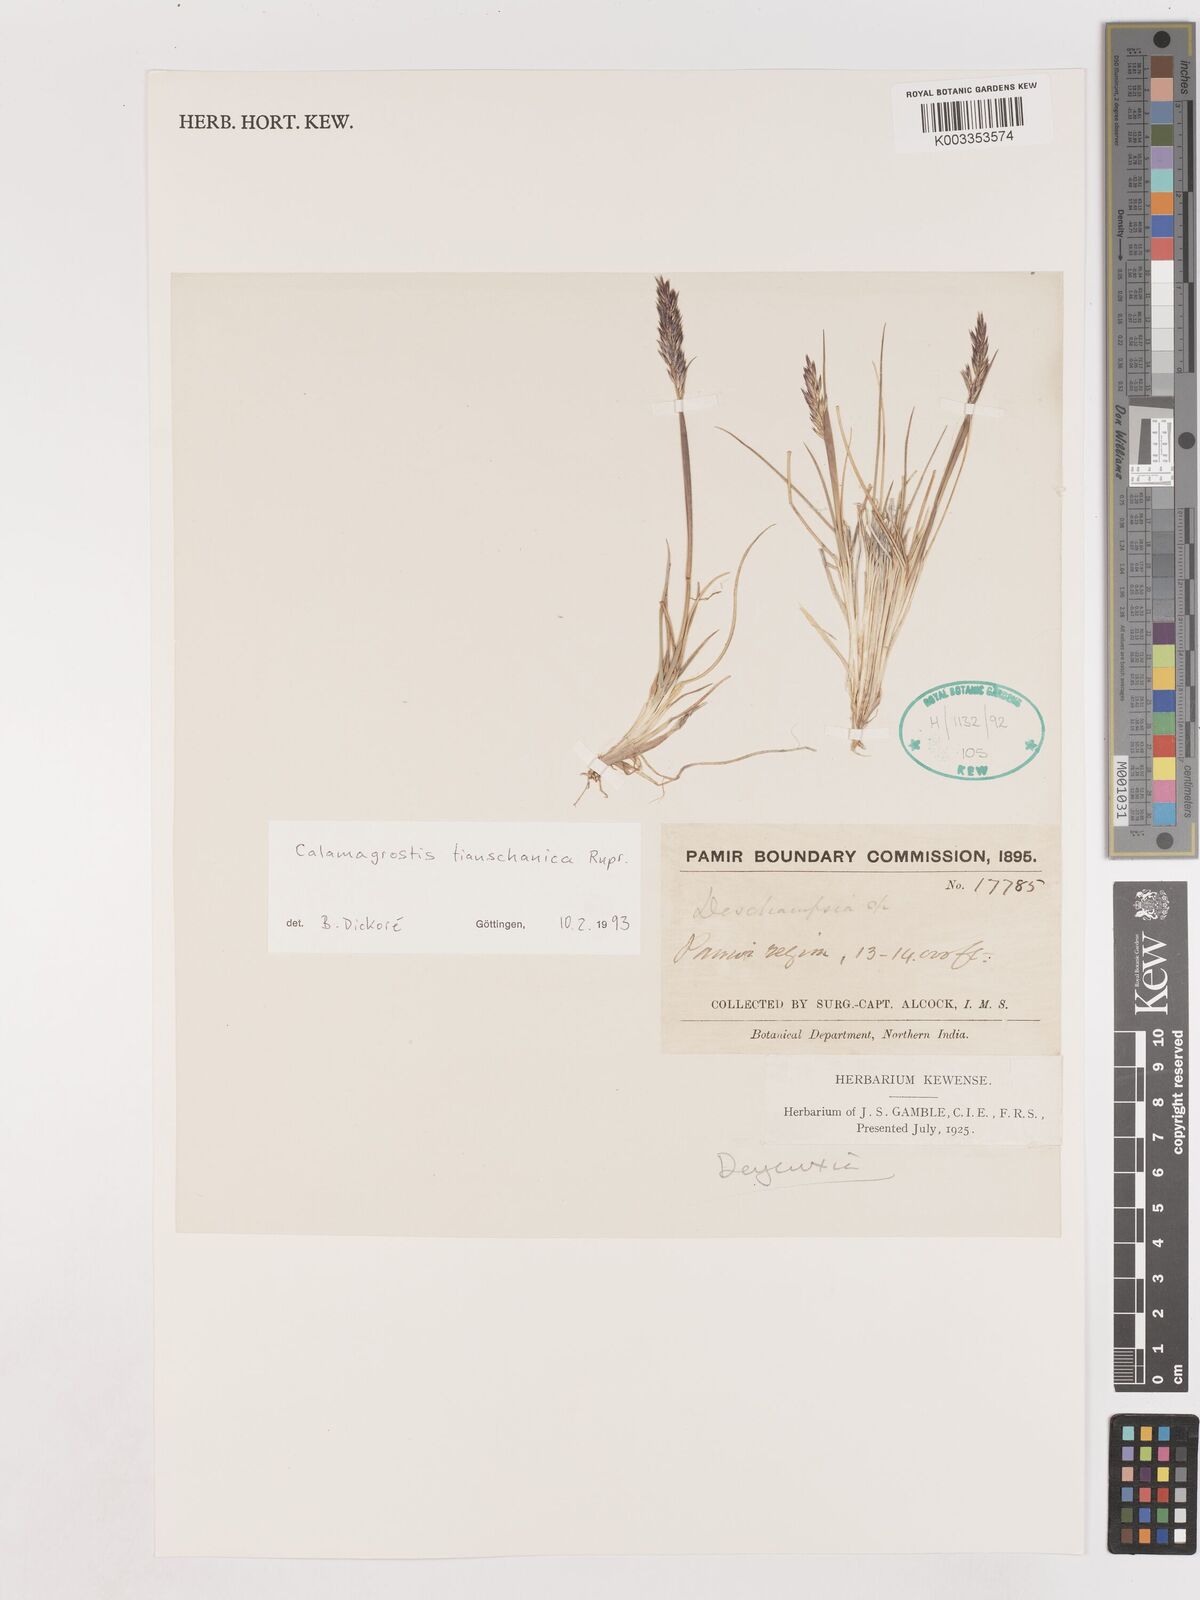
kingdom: Plantae
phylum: Tracheophyta
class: Liliopsida
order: Poales
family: Poaceae
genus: Calamagrostis
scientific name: Calamagrostis tianschanica
